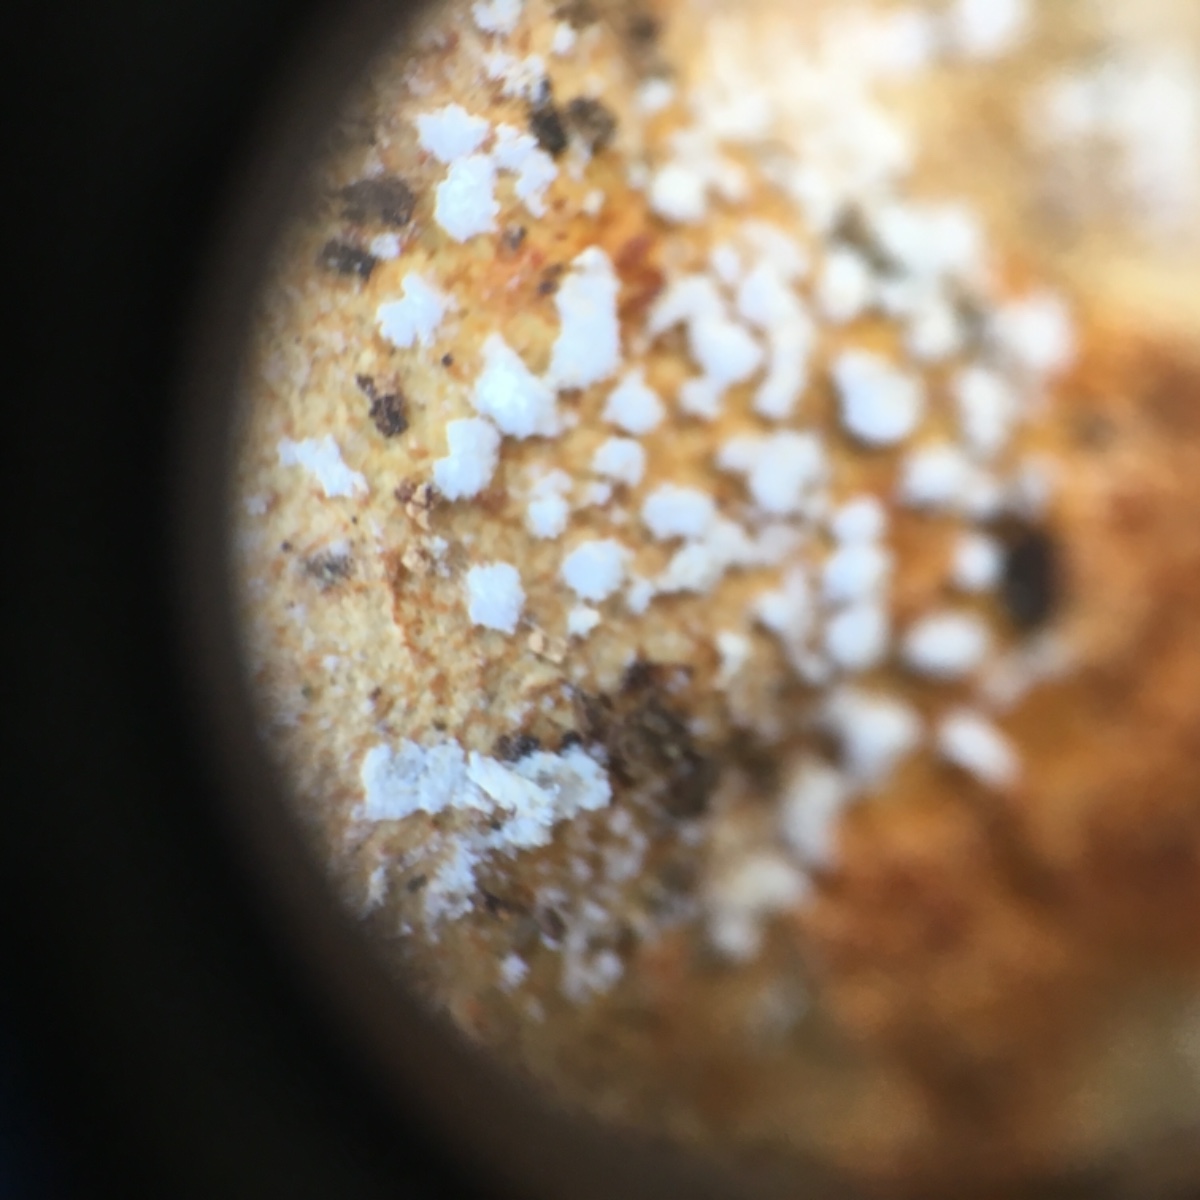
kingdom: Fungi
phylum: Ascomycota
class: Sordariomycetes
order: Hypocreales
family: Hypocreaceae
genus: Hypomyces
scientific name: Hypomyces aurantius
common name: almindelig snylteskorpe
